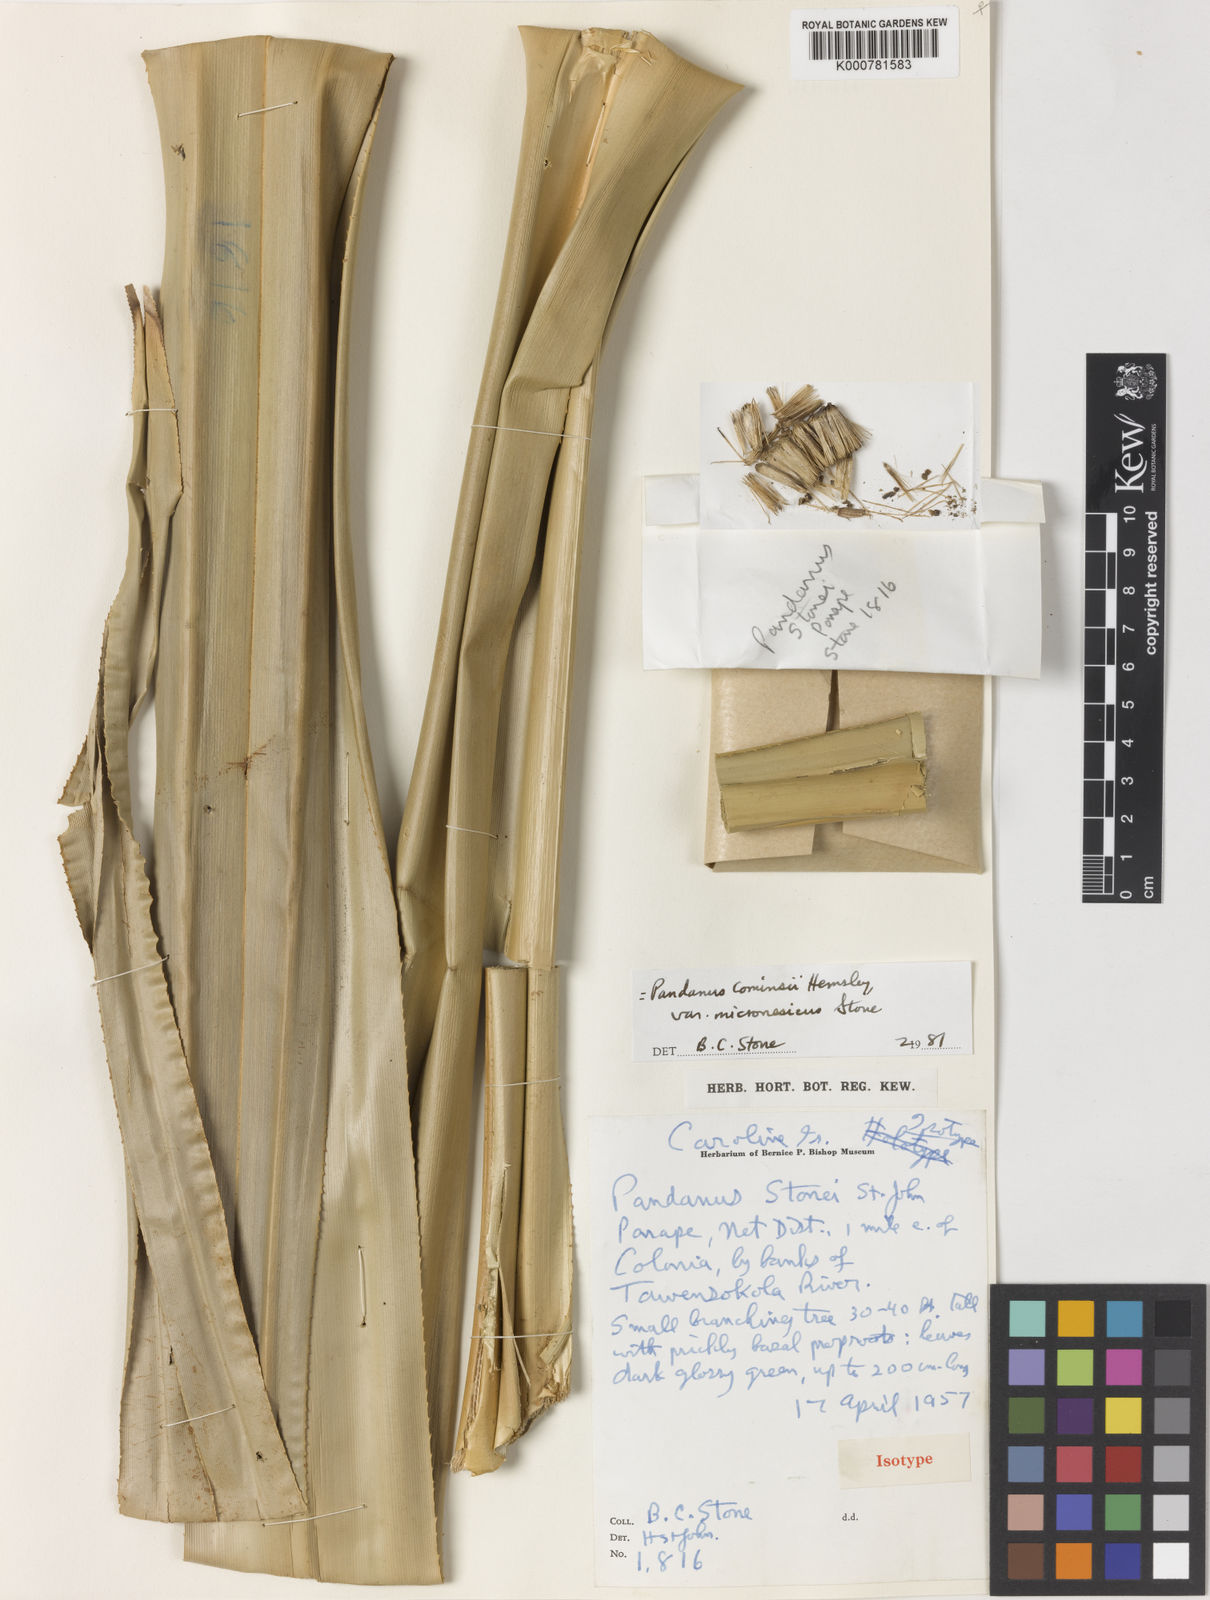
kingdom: Plantae
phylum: Tracheophyta
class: Liliopsida
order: Pandanales
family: Pandanaceae
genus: Pandanus
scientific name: Pandanus conoideus
